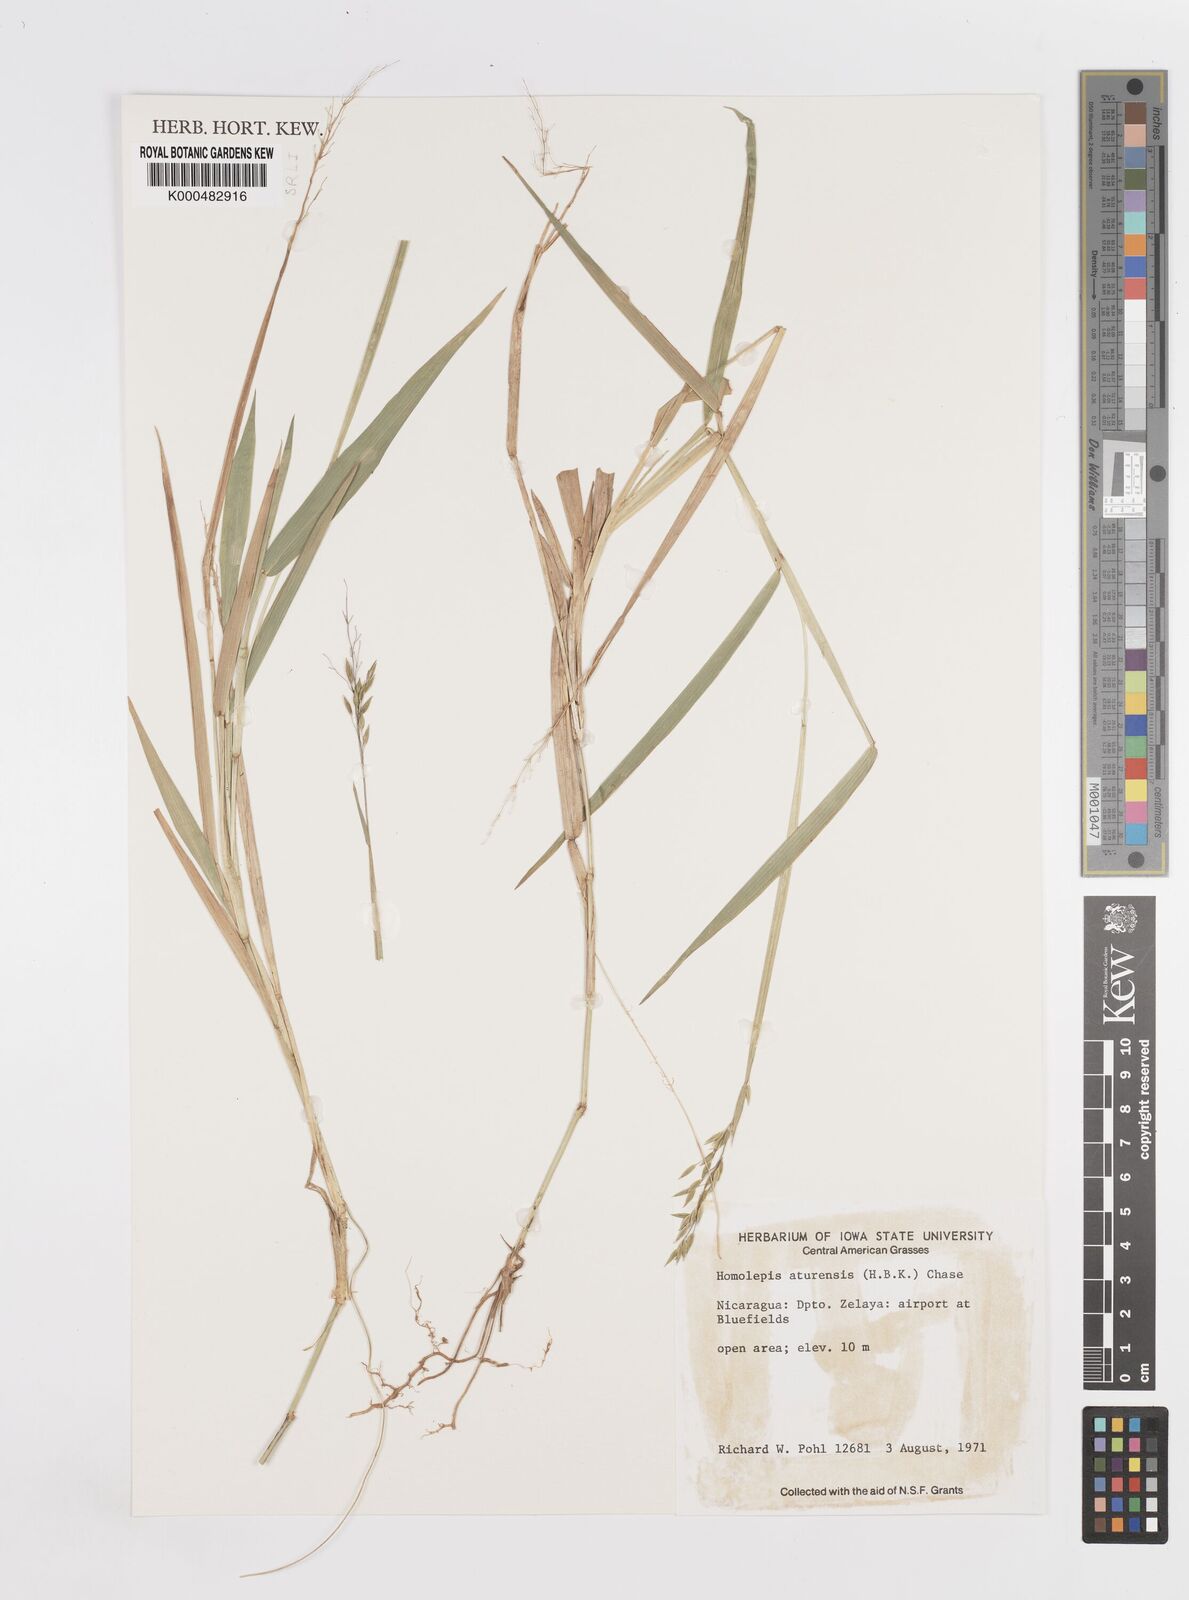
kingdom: Plantae
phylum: Tracheophyta
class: Liliopsida
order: Poales
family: Poaceae
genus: Homolepis
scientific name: Homolepis aturensis
